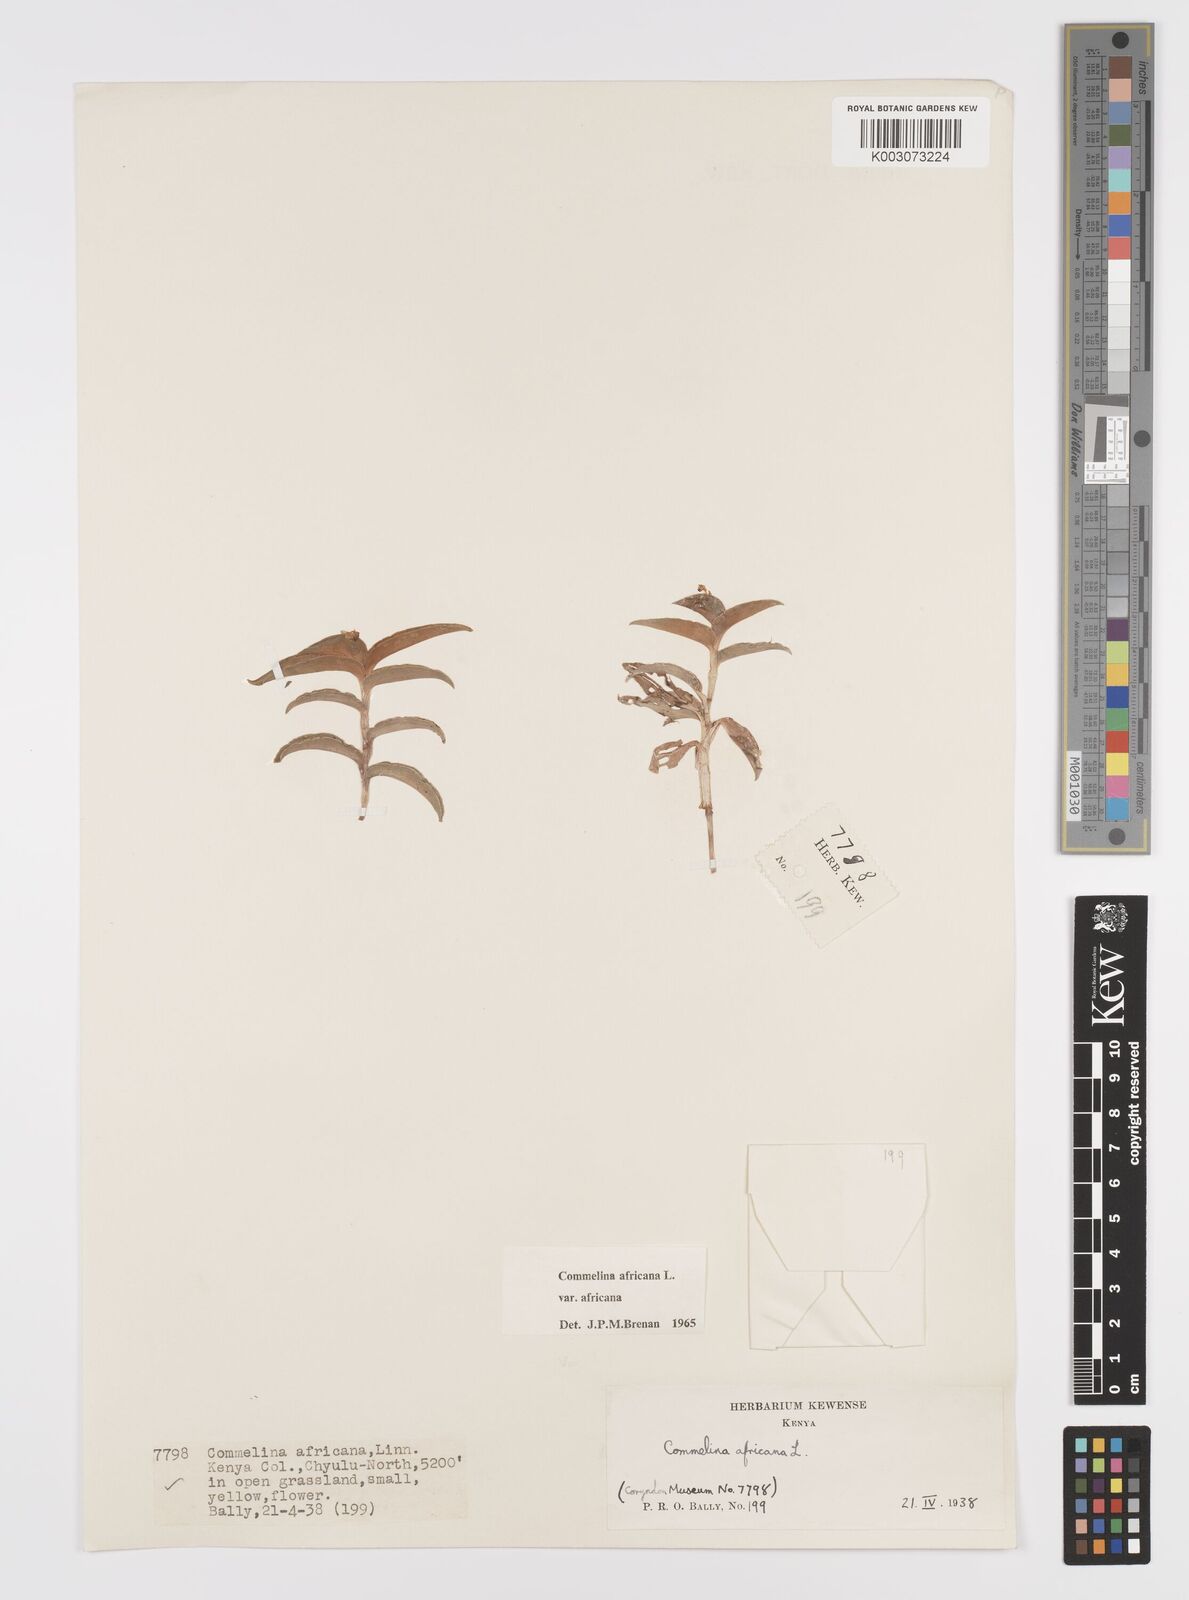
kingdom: Plantae
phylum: Tracheophyta
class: Liliopsida
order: Commelinales
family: Commelinaceae
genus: Commelina
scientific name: Commelina africana
